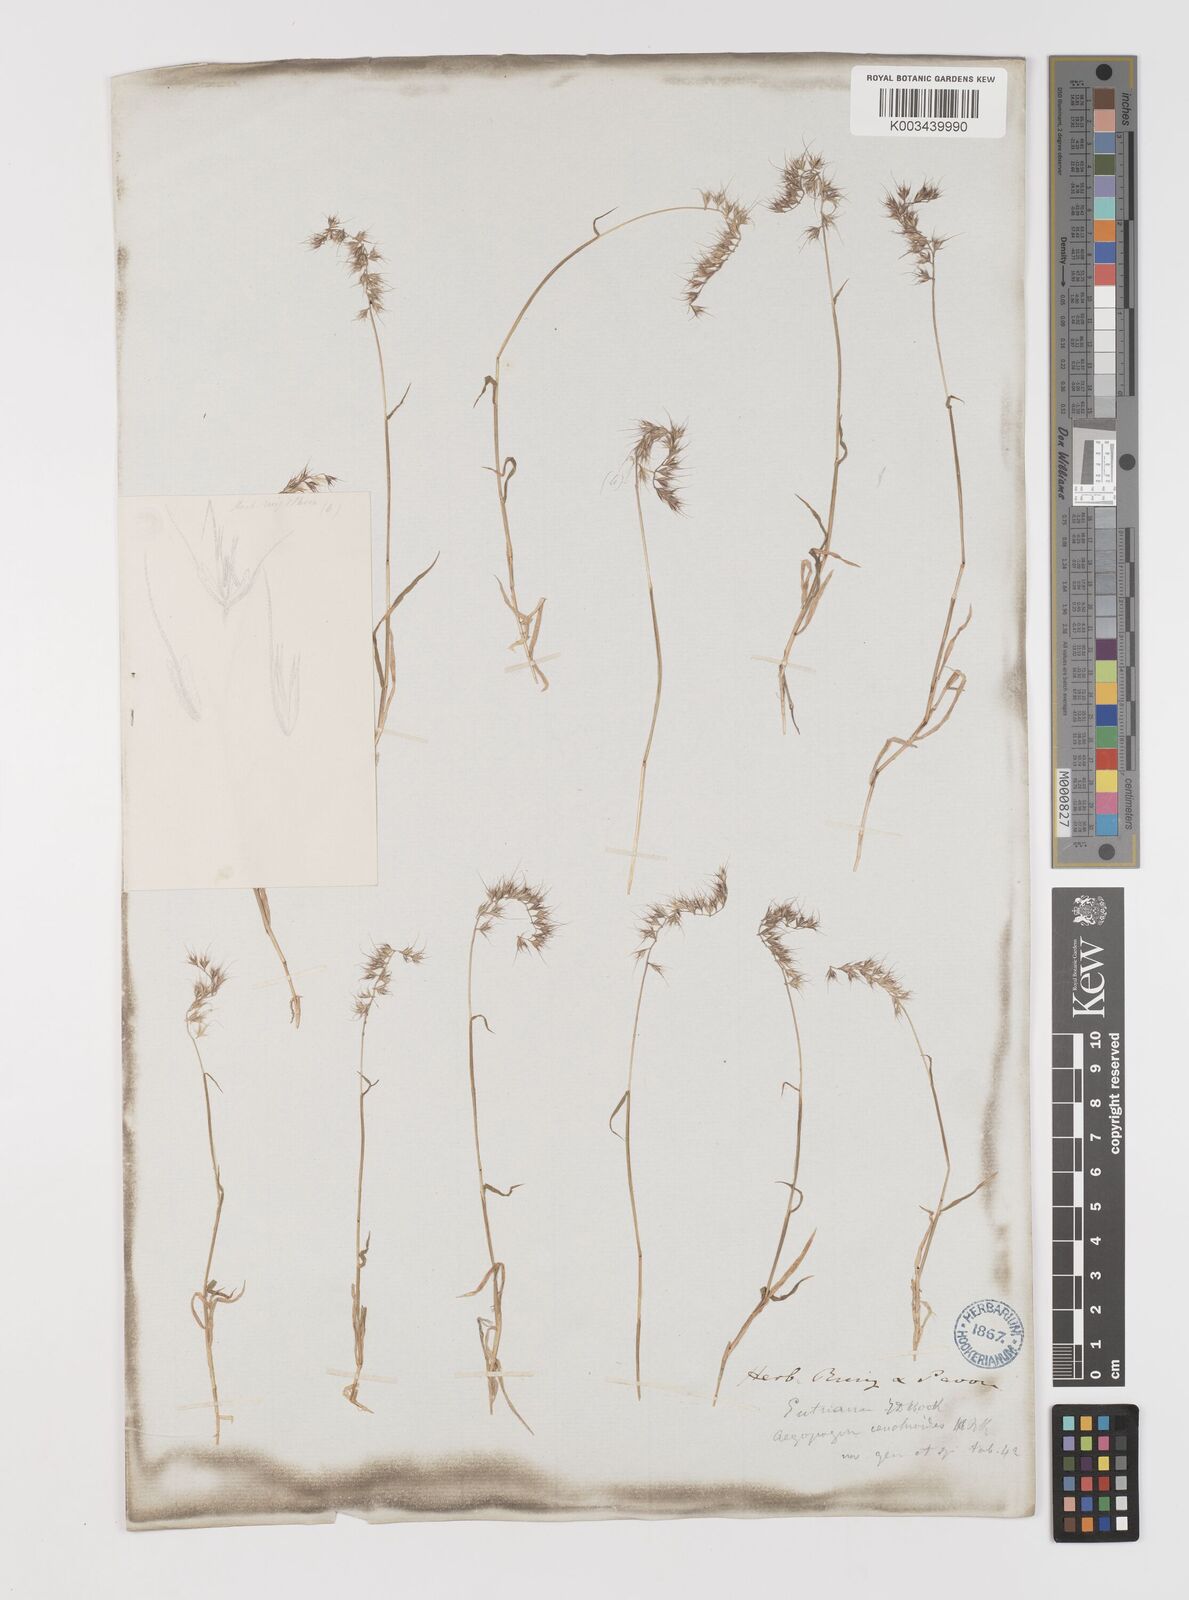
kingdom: Plantae
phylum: Tracheophyta
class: Liliopsida
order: Poales
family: Poaceae
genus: Muhlenbergia
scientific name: Muhlenbergia cenchroides
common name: Relaxgrass
